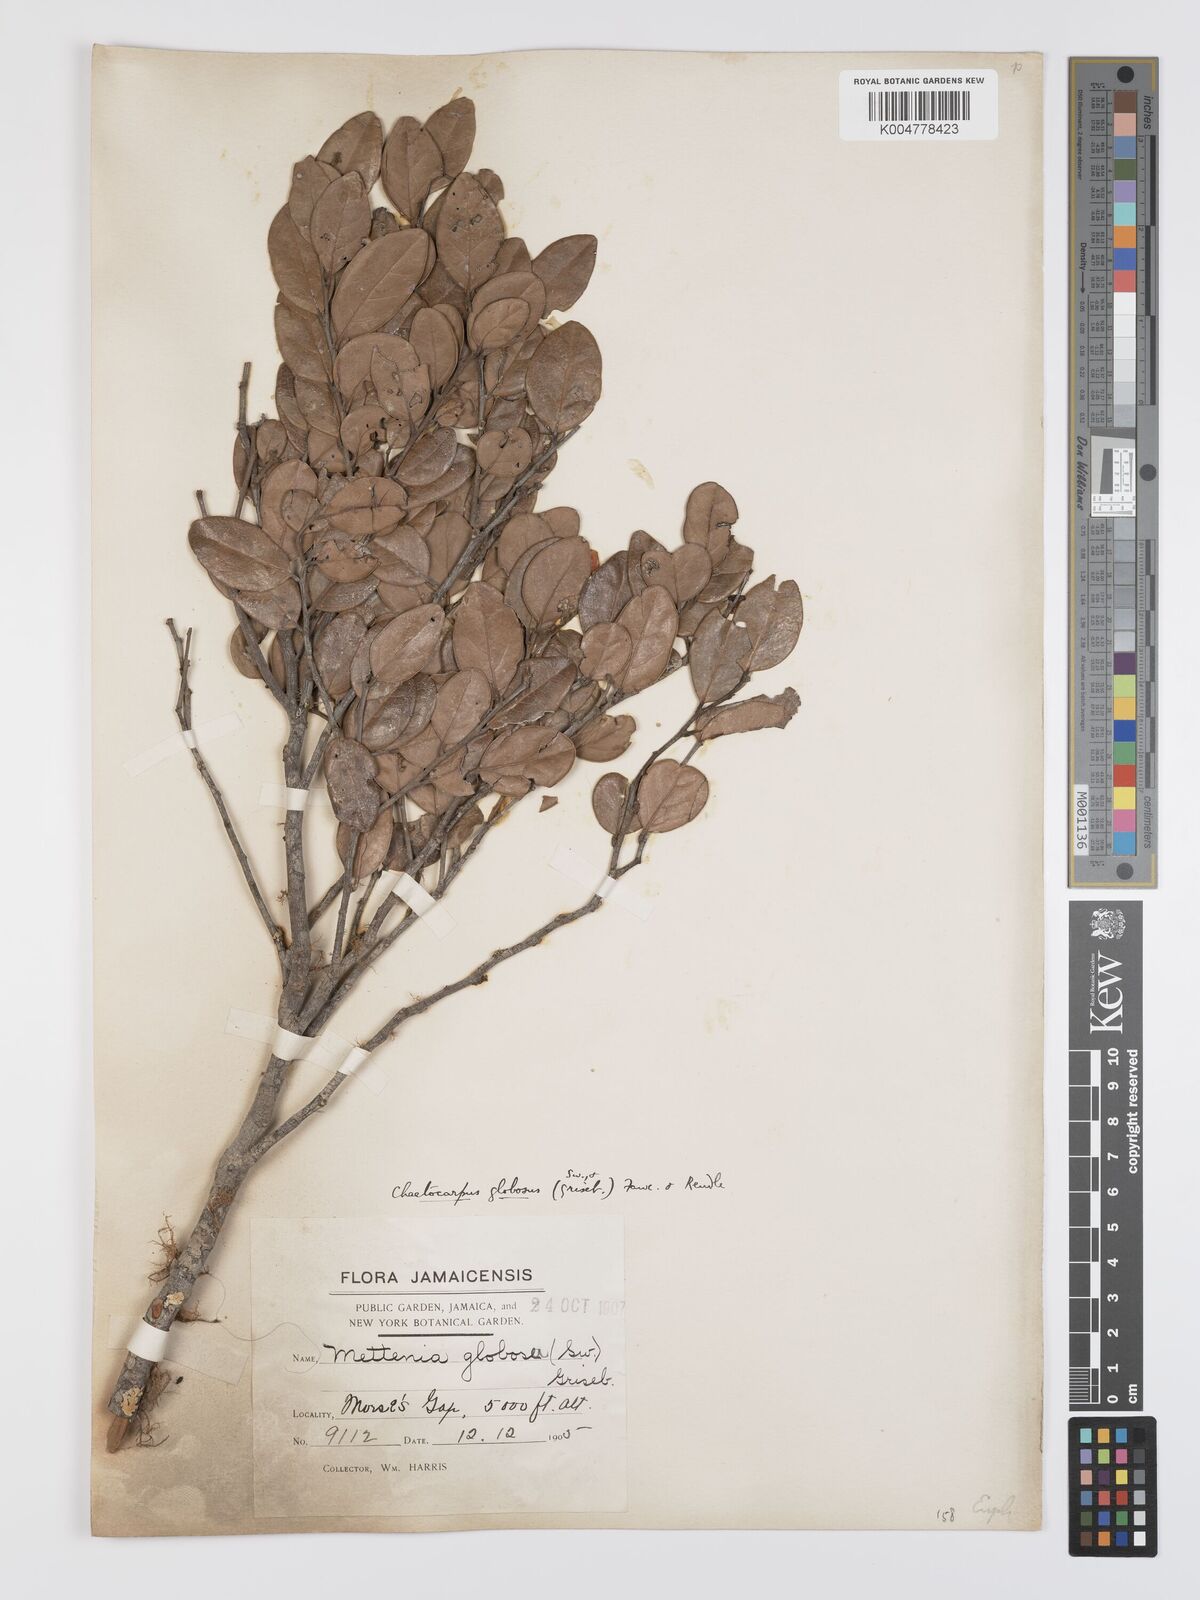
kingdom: Plantae
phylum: Tracheophyta
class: Magnoliopsida
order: Malpighiales
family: Peraceae
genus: Chaetocarpus
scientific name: Chaetocarpus globosus
